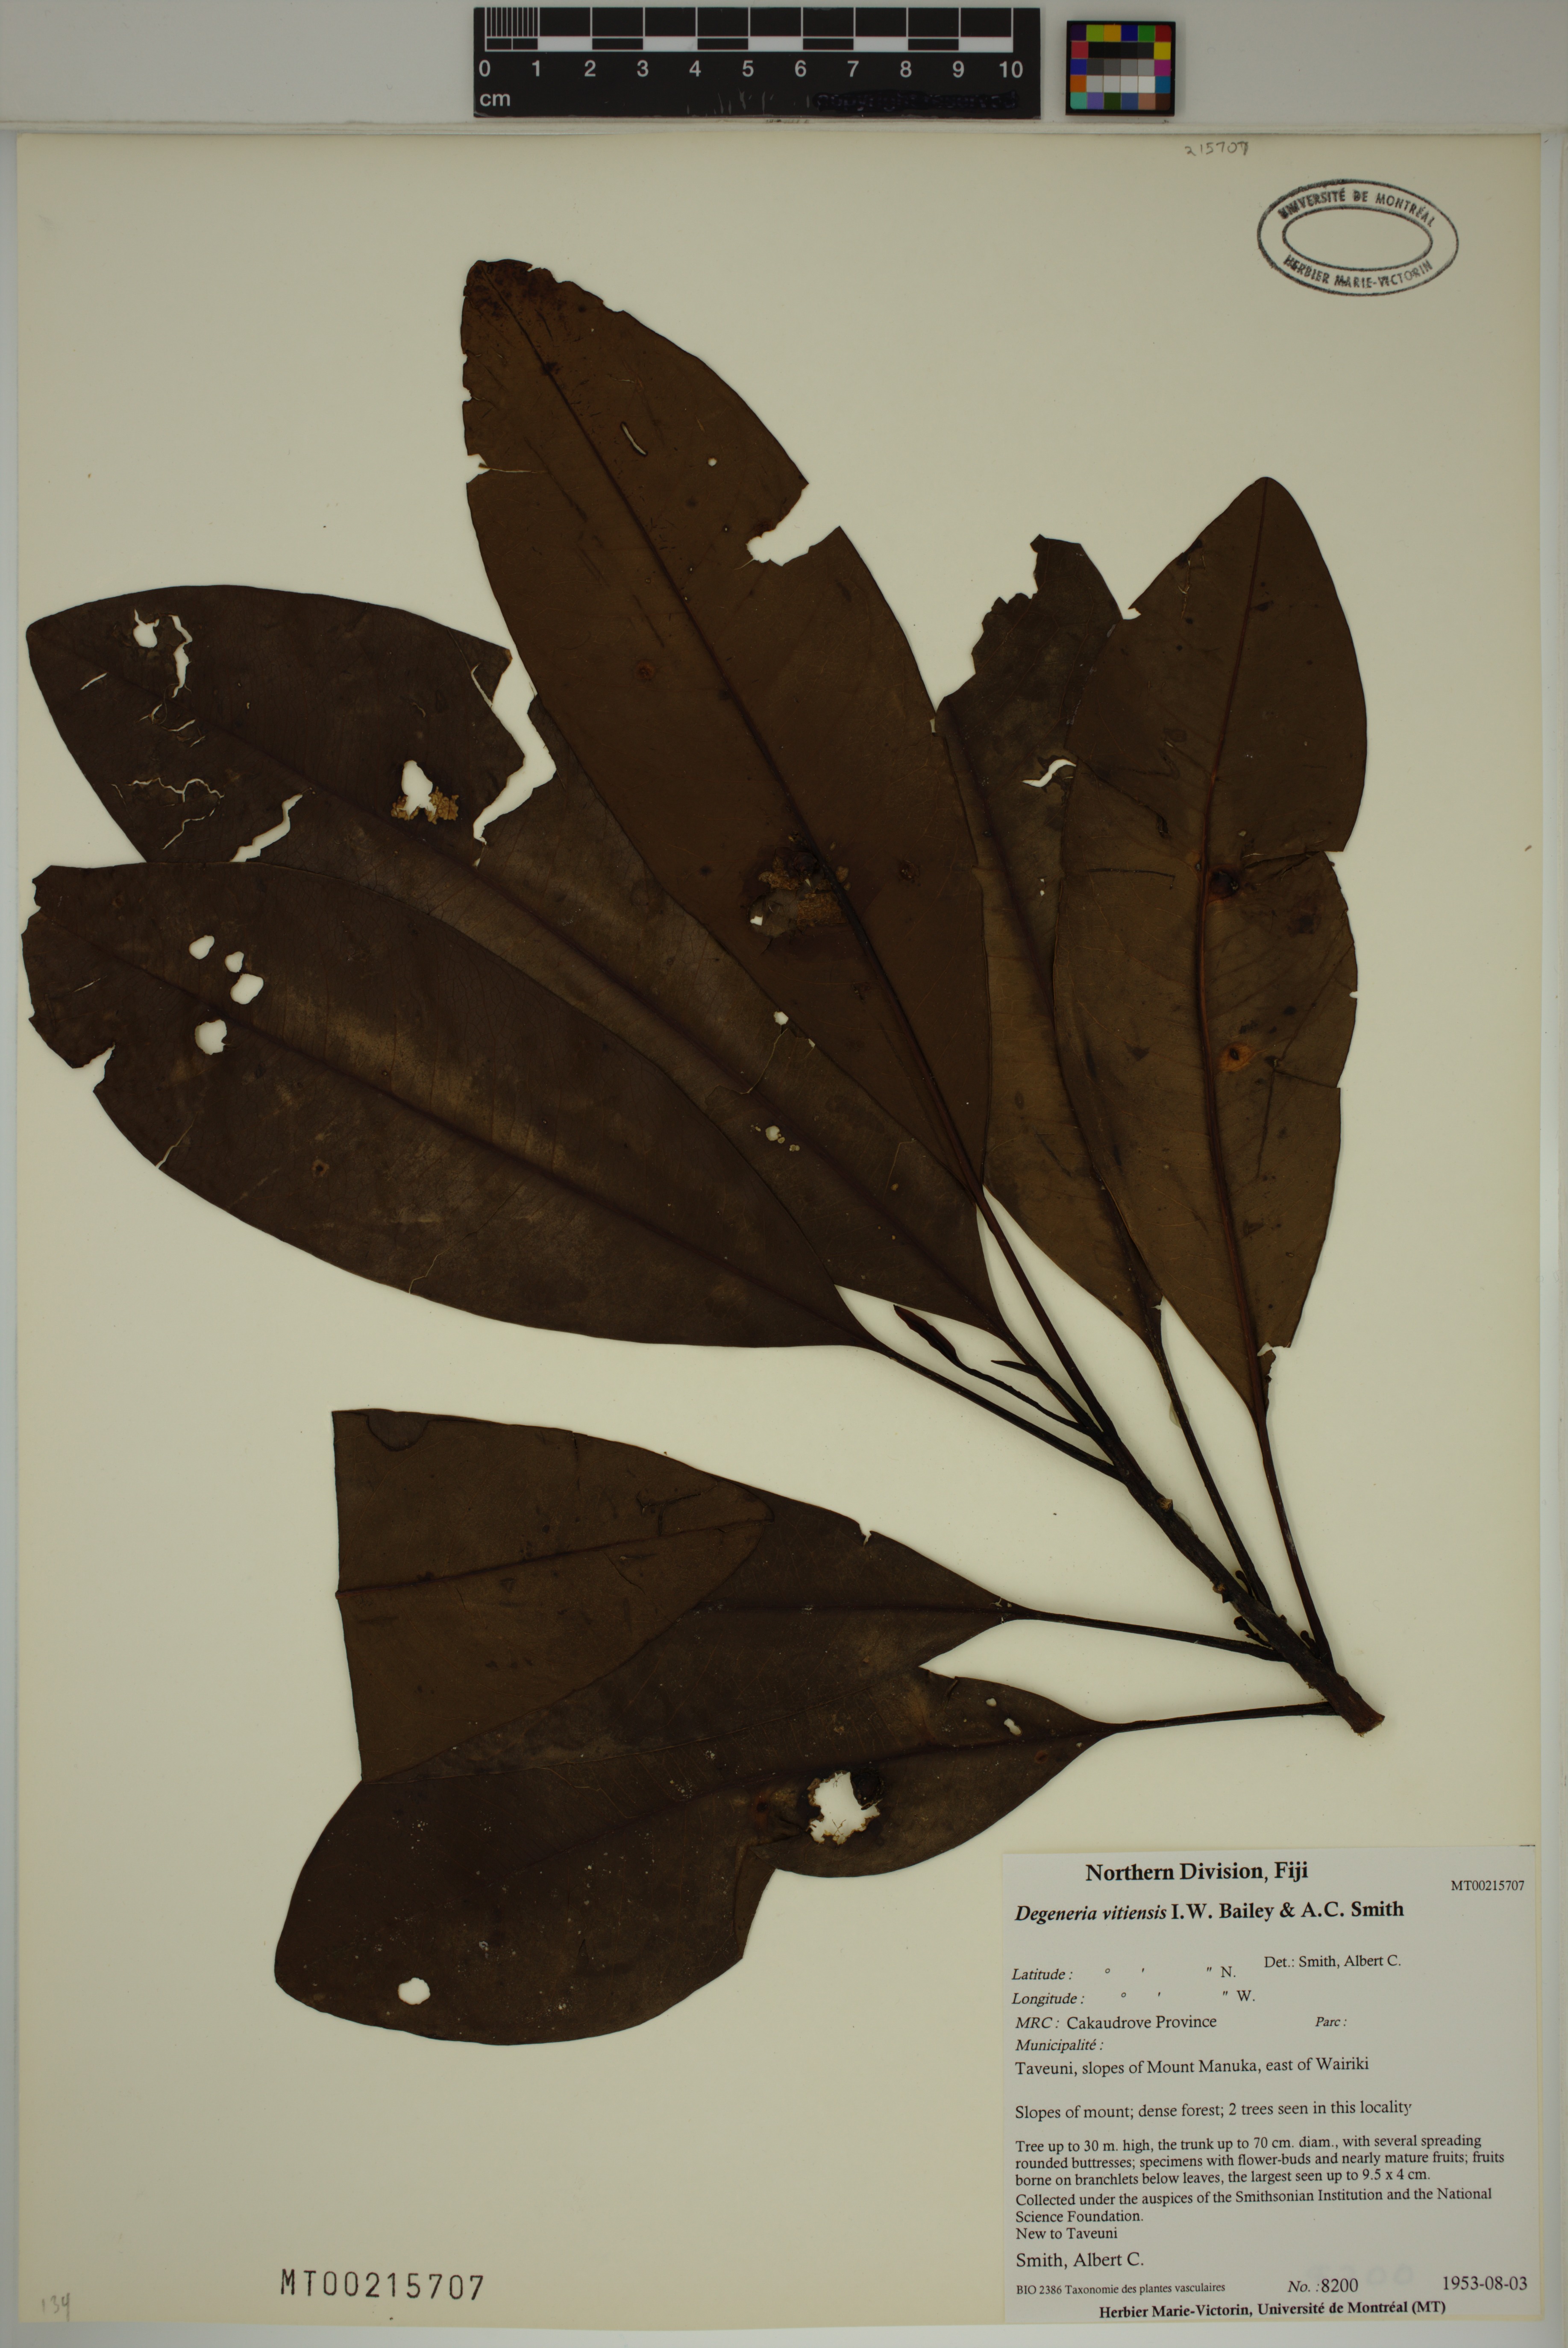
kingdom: Plantae
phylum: Tracheophyta
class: Magnoliopsida
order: Magnoliales
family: Degeneriaceae
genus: Degeneria
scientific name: Degeneria vitiensis
